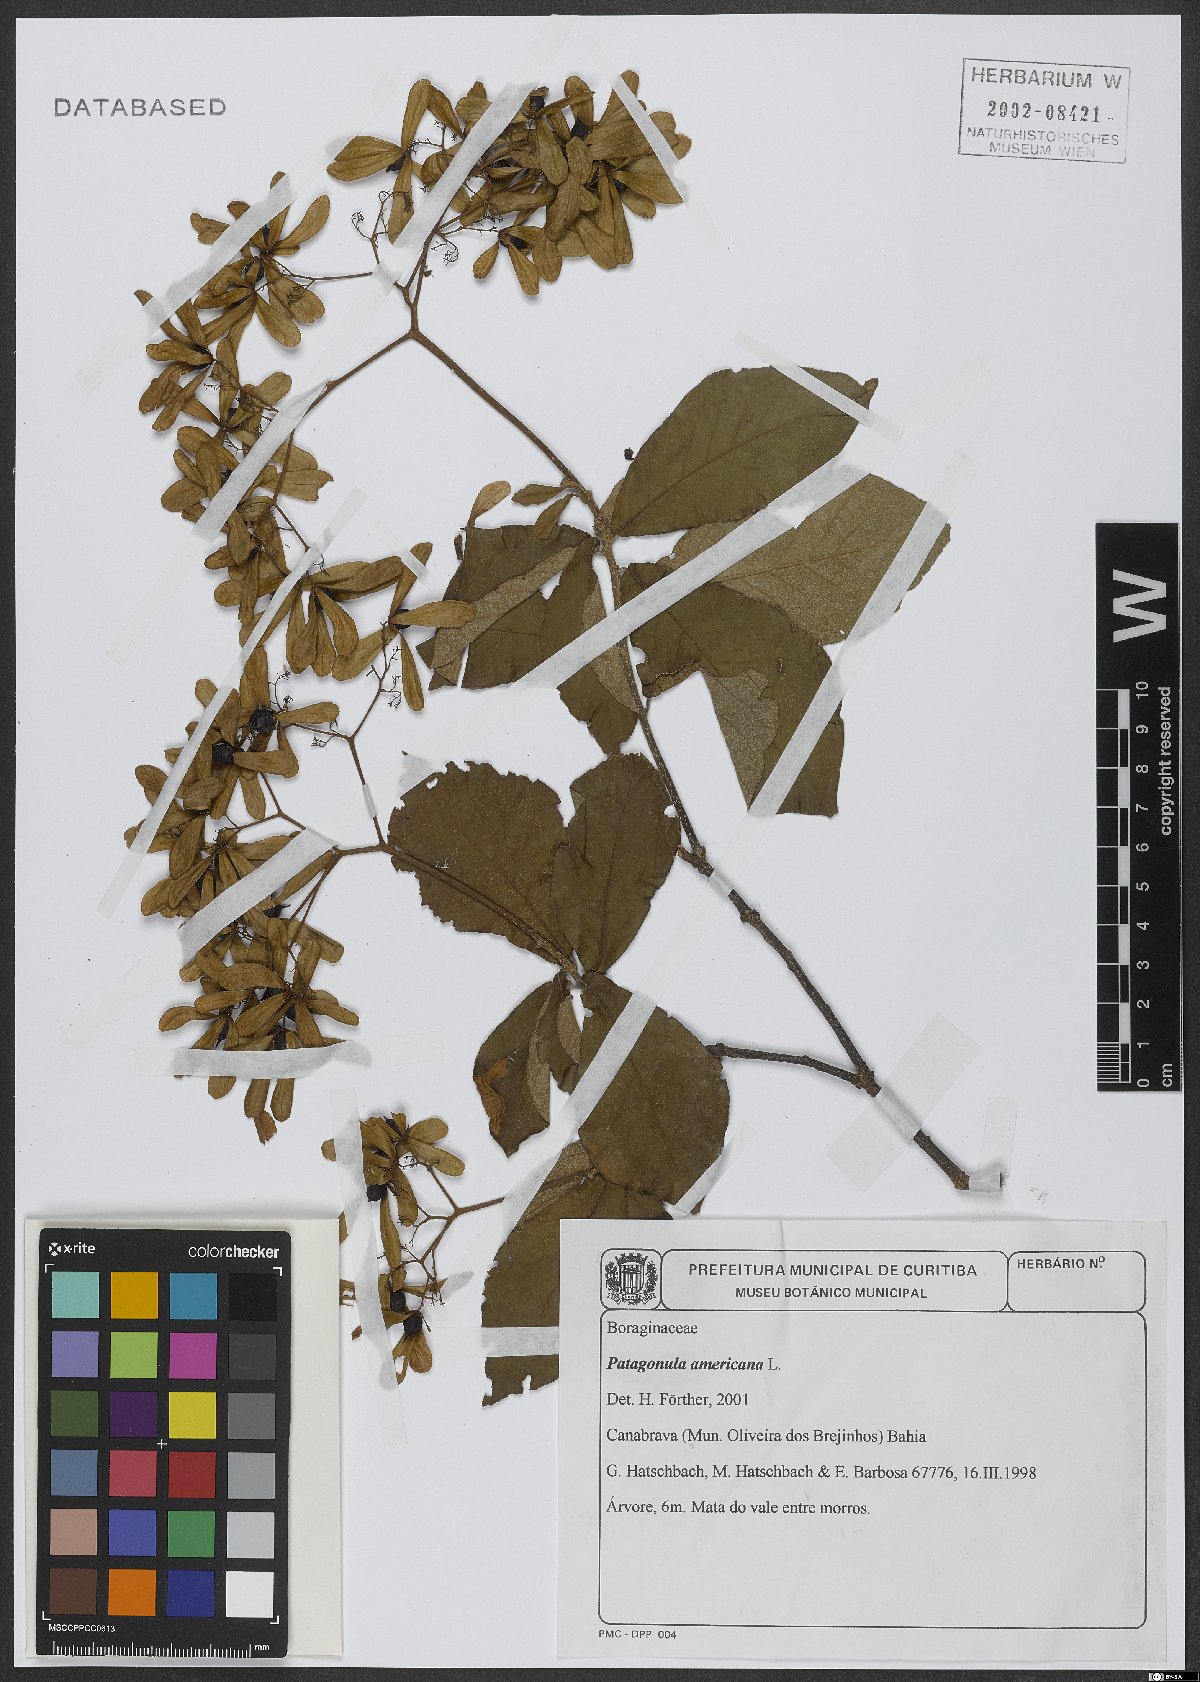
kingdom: Plantae
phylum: Tracheophyta
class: Magnoliopsida
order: Boraginales
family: Cordiaceae
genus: Cordia
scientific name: Cordia americana
